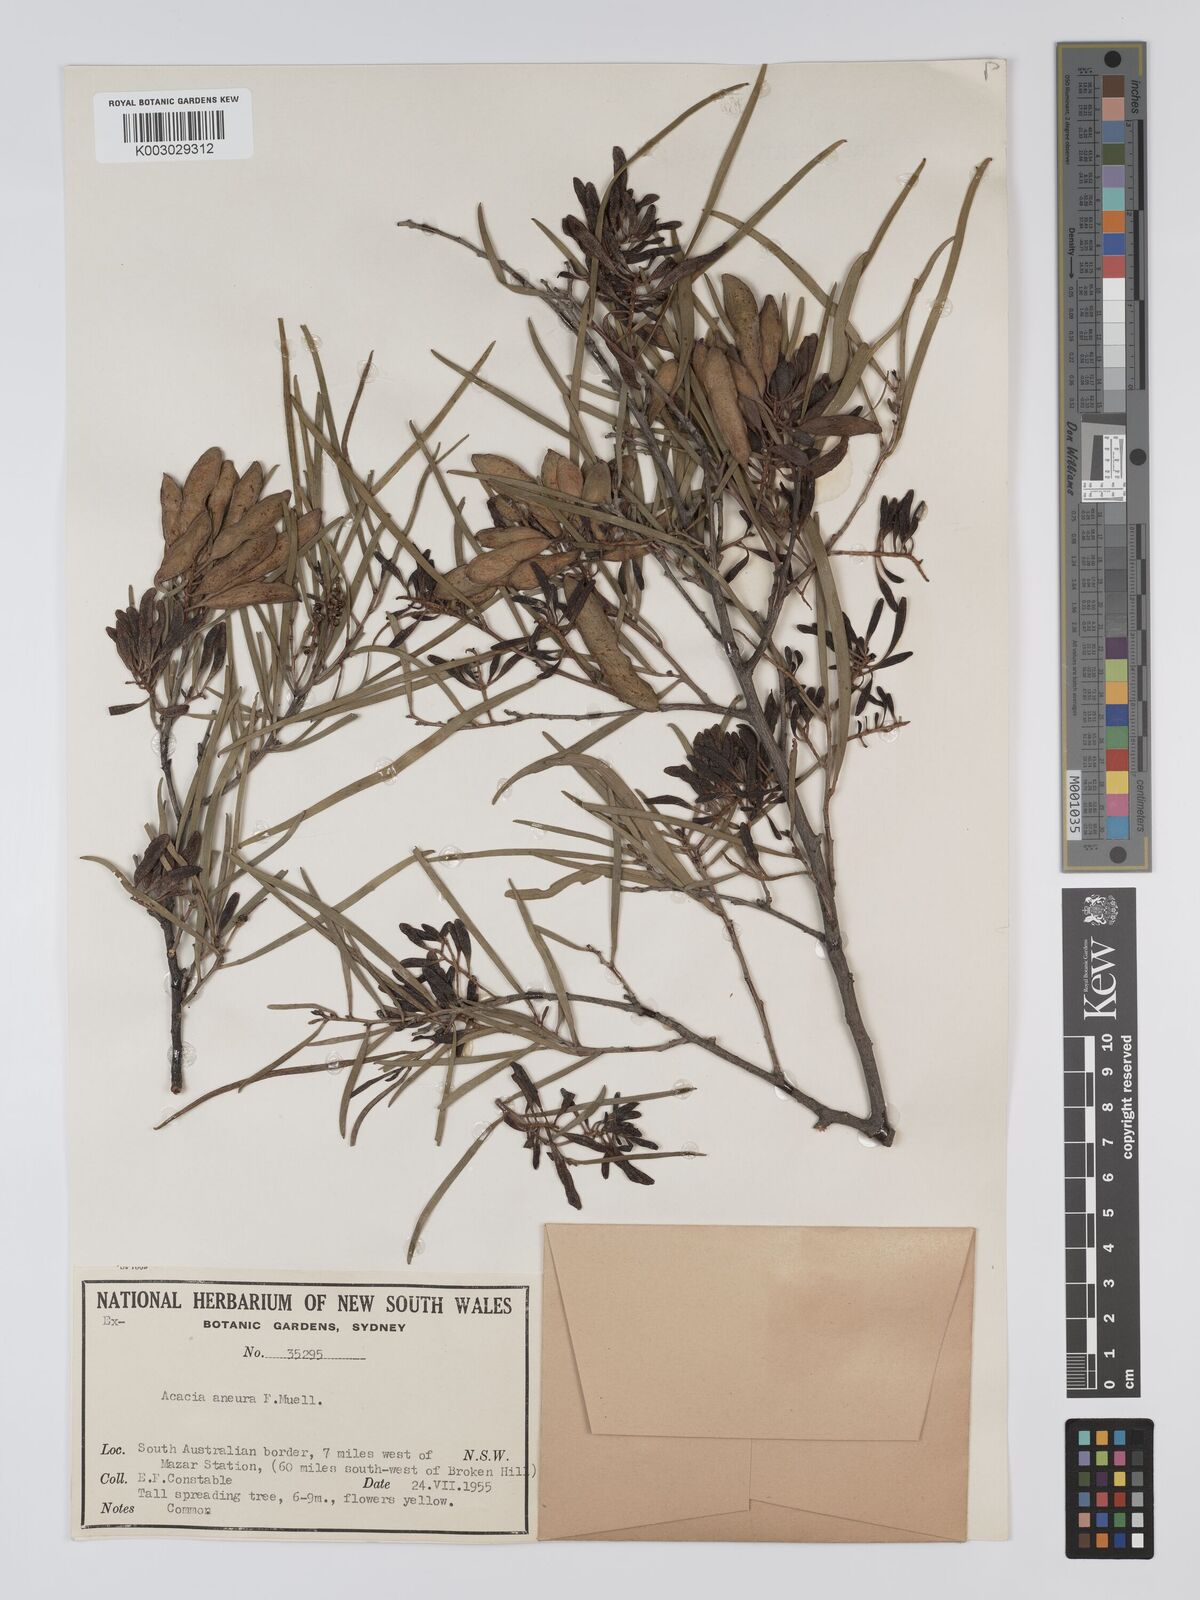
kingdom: Plantae
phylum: Tracheophyta
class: Magnoliopsida
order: Fabales
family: Fabaceae
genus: Acacia
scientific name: Acacia aneura
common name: Mulga
